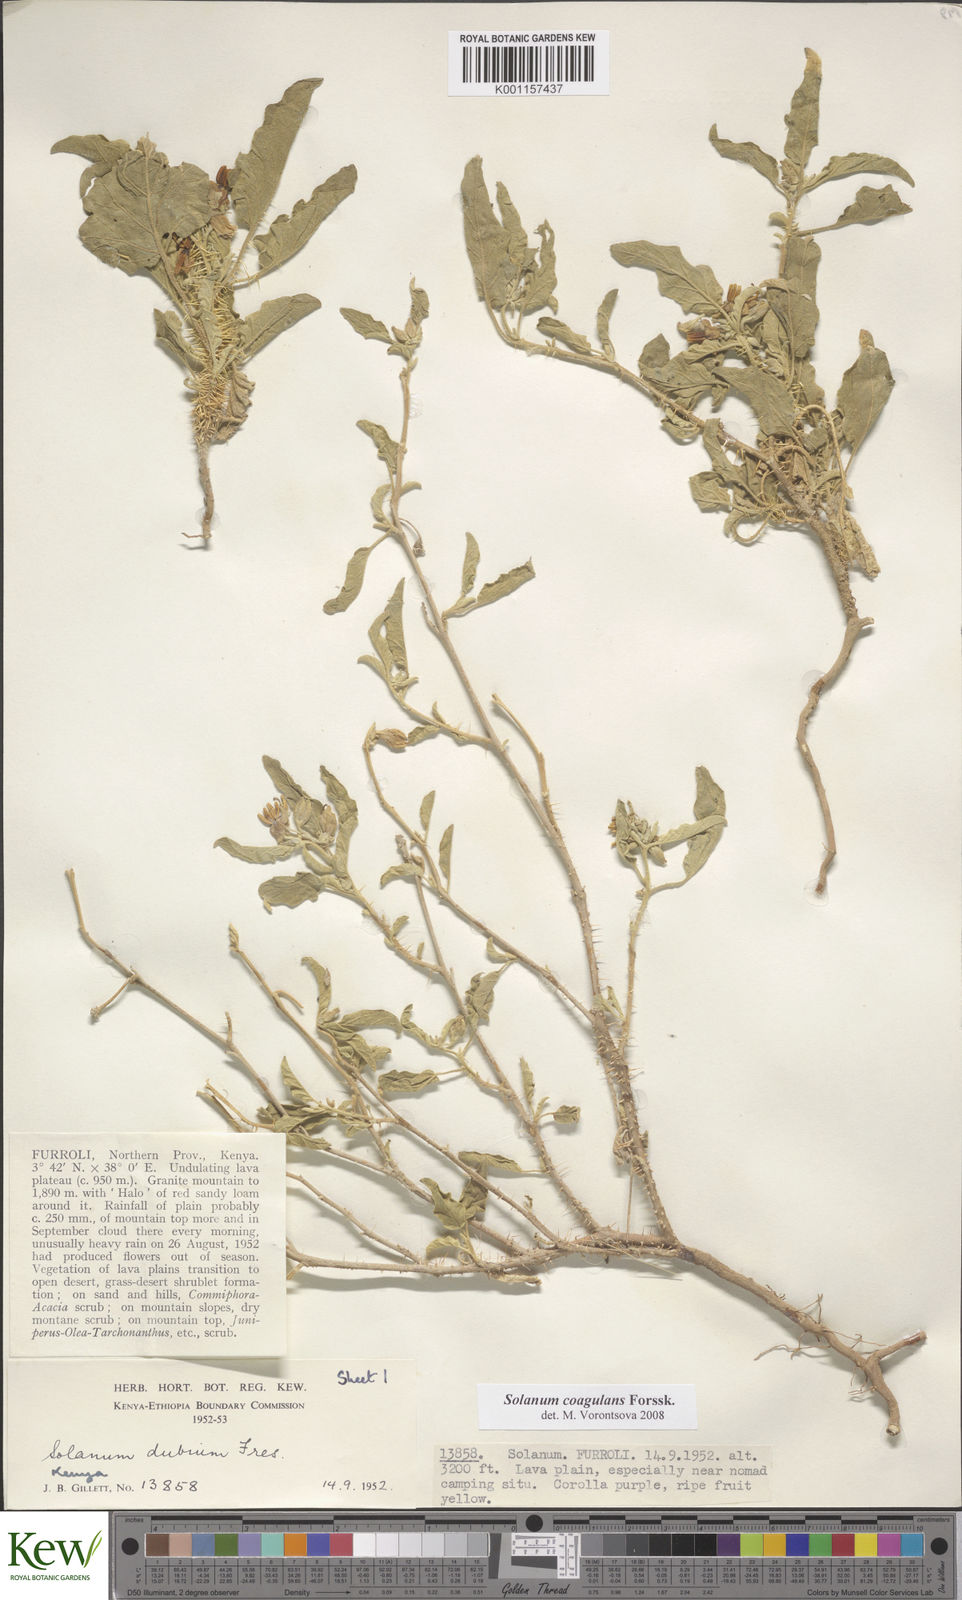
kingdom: Plantae
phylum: Tracheophyta
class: Magnoliopsida
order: Solanales
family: Solanaceae
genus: Solanum
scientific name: Solanum coagulans
